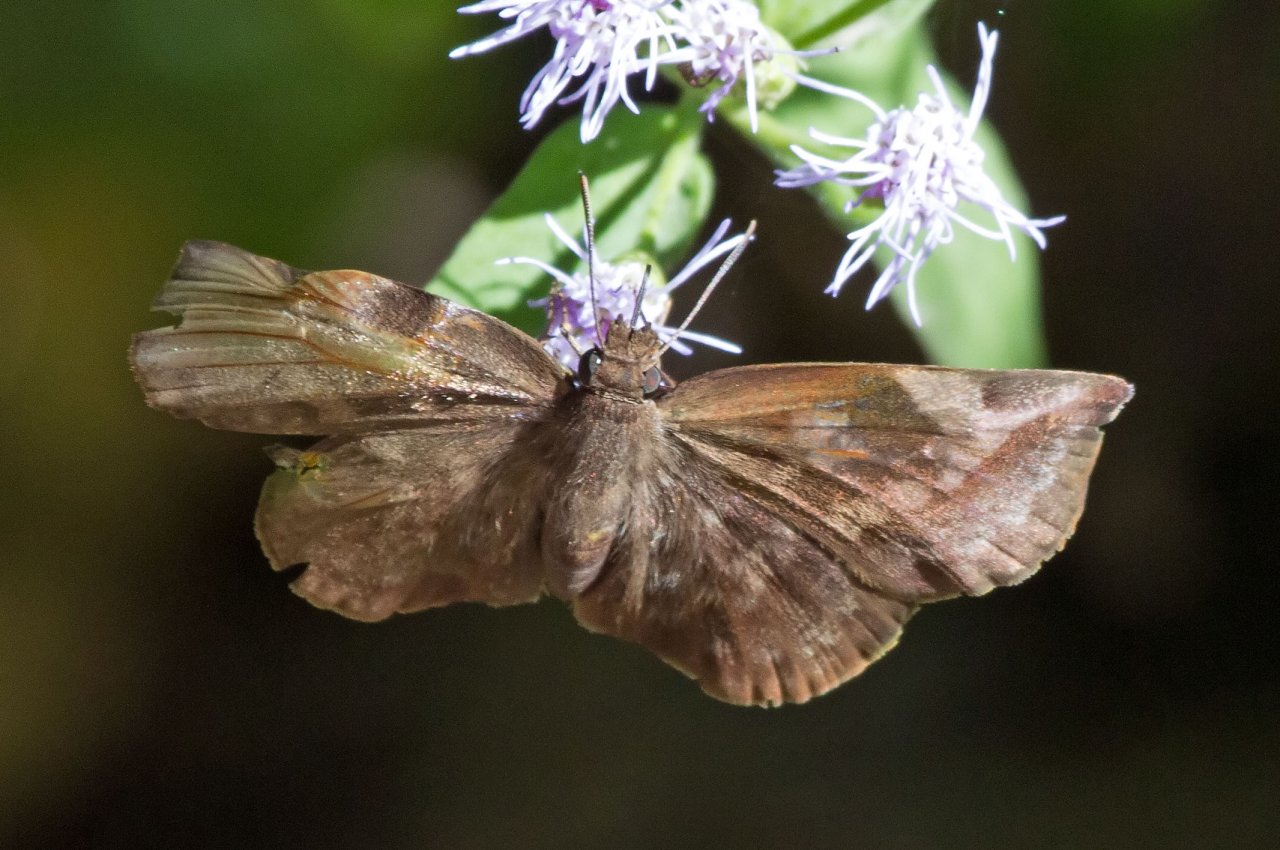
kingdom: Animalia
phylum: Arthropoda
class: Insecta
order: Lepidoptera
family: Hesperiidae
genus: Achlyodes
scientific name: Achlyodes thraso
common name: Sickle-winged Skipper
